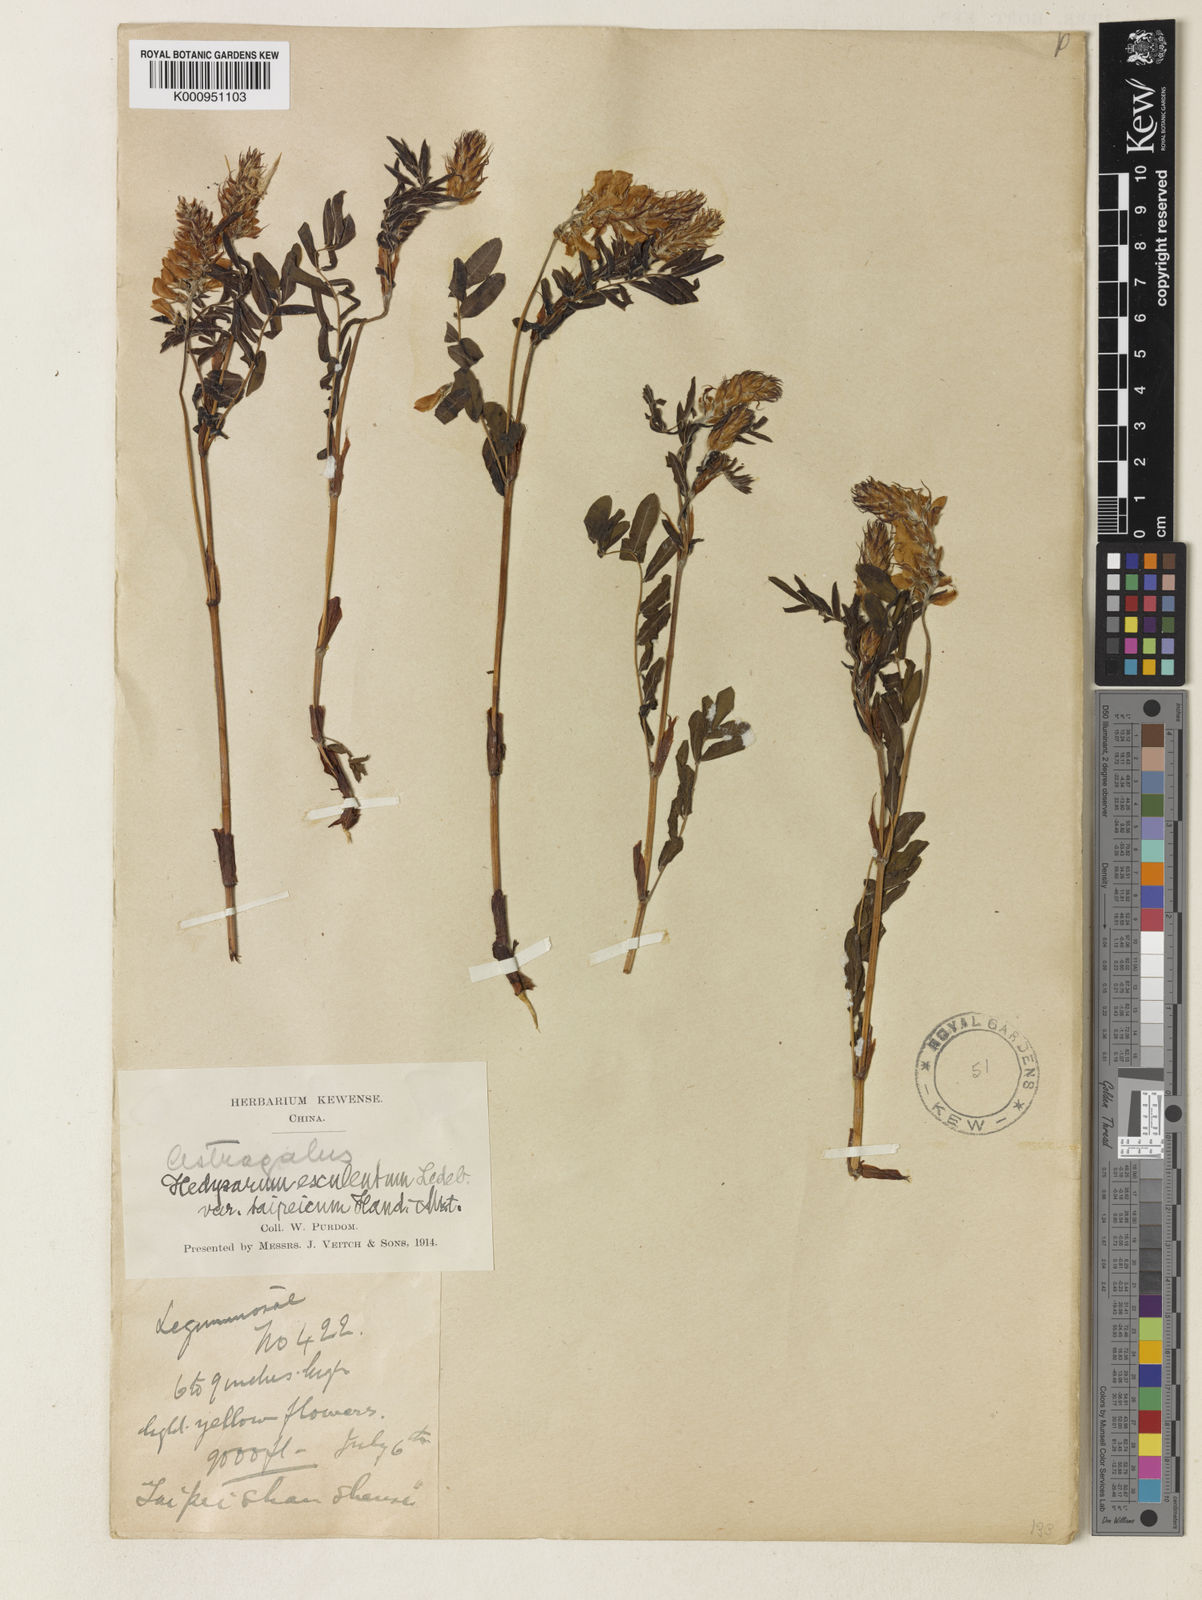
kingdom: Plantae
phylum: Tracheophyta
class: Magnoliopsida
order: Fabales
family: Fabaceae
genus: Hedysarum
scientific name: Hedysarum vicioides
